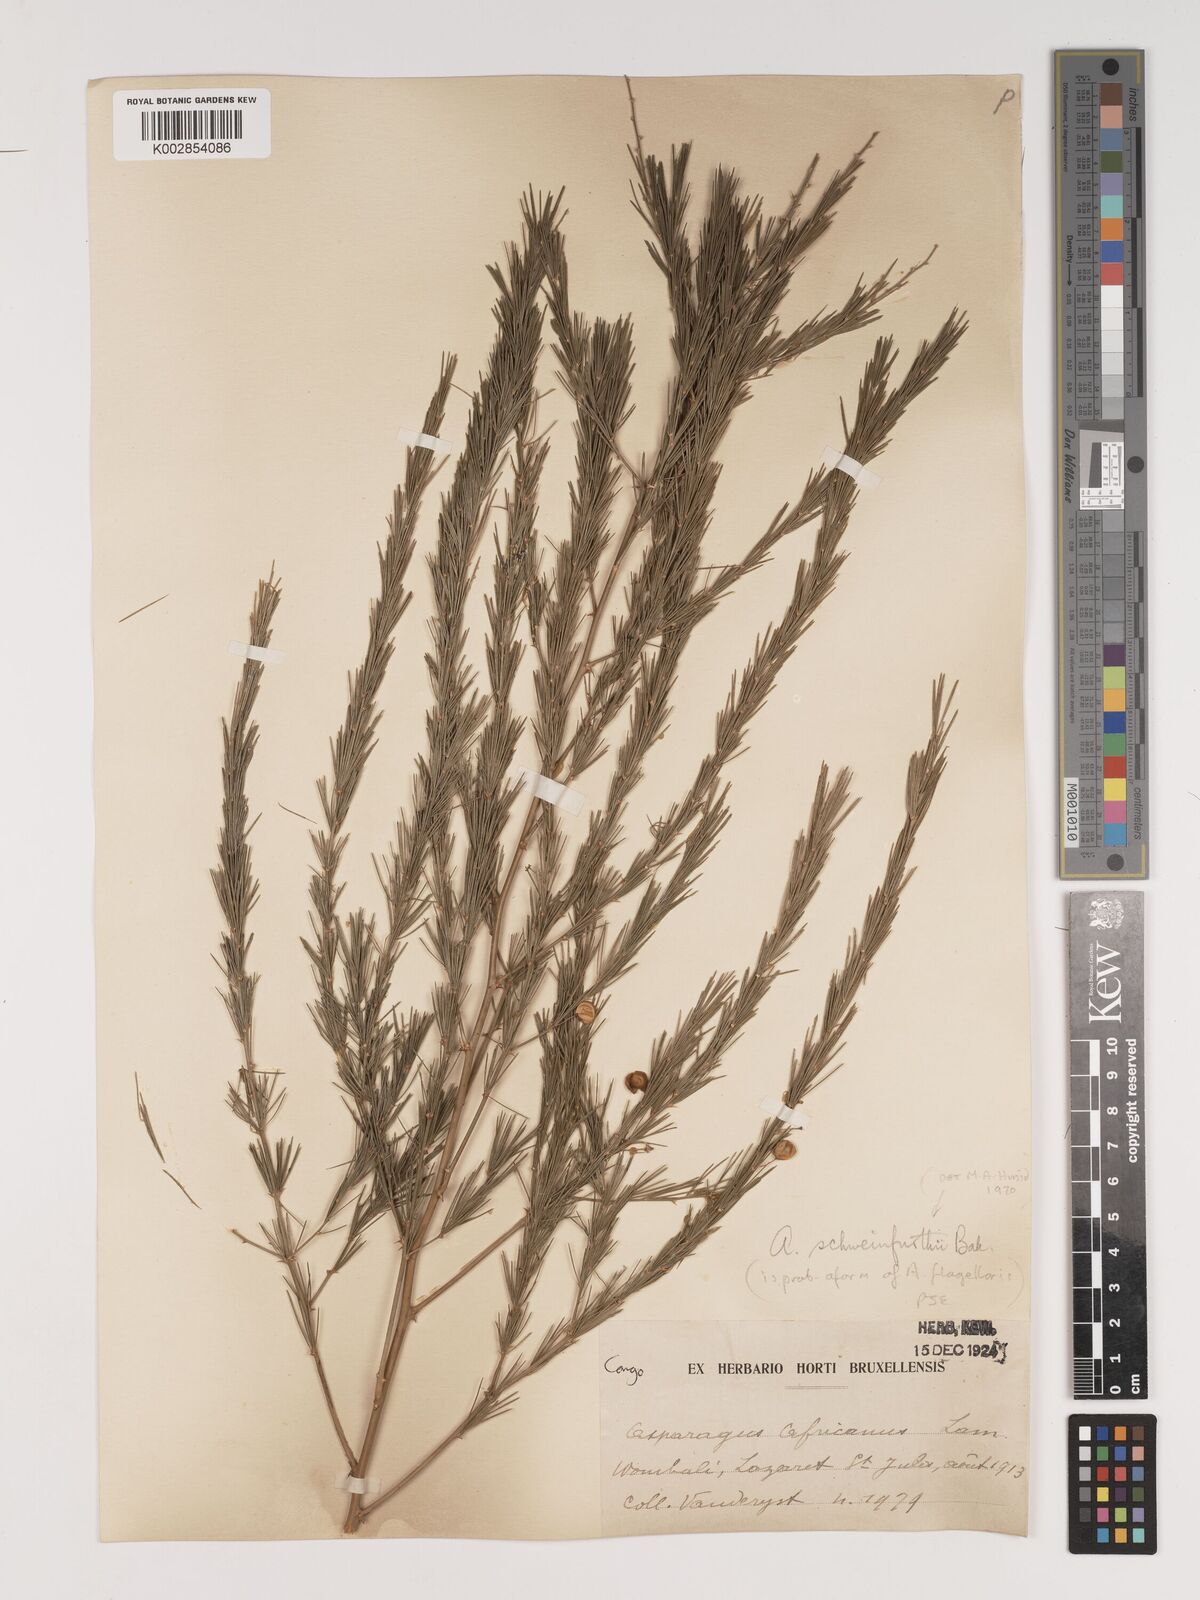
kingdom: Plantae
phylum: Tracheophyta
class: Liliopsida
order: Asparagales
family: Asparagaceae
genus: Asparagus
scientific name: Asparagus flagellaris
